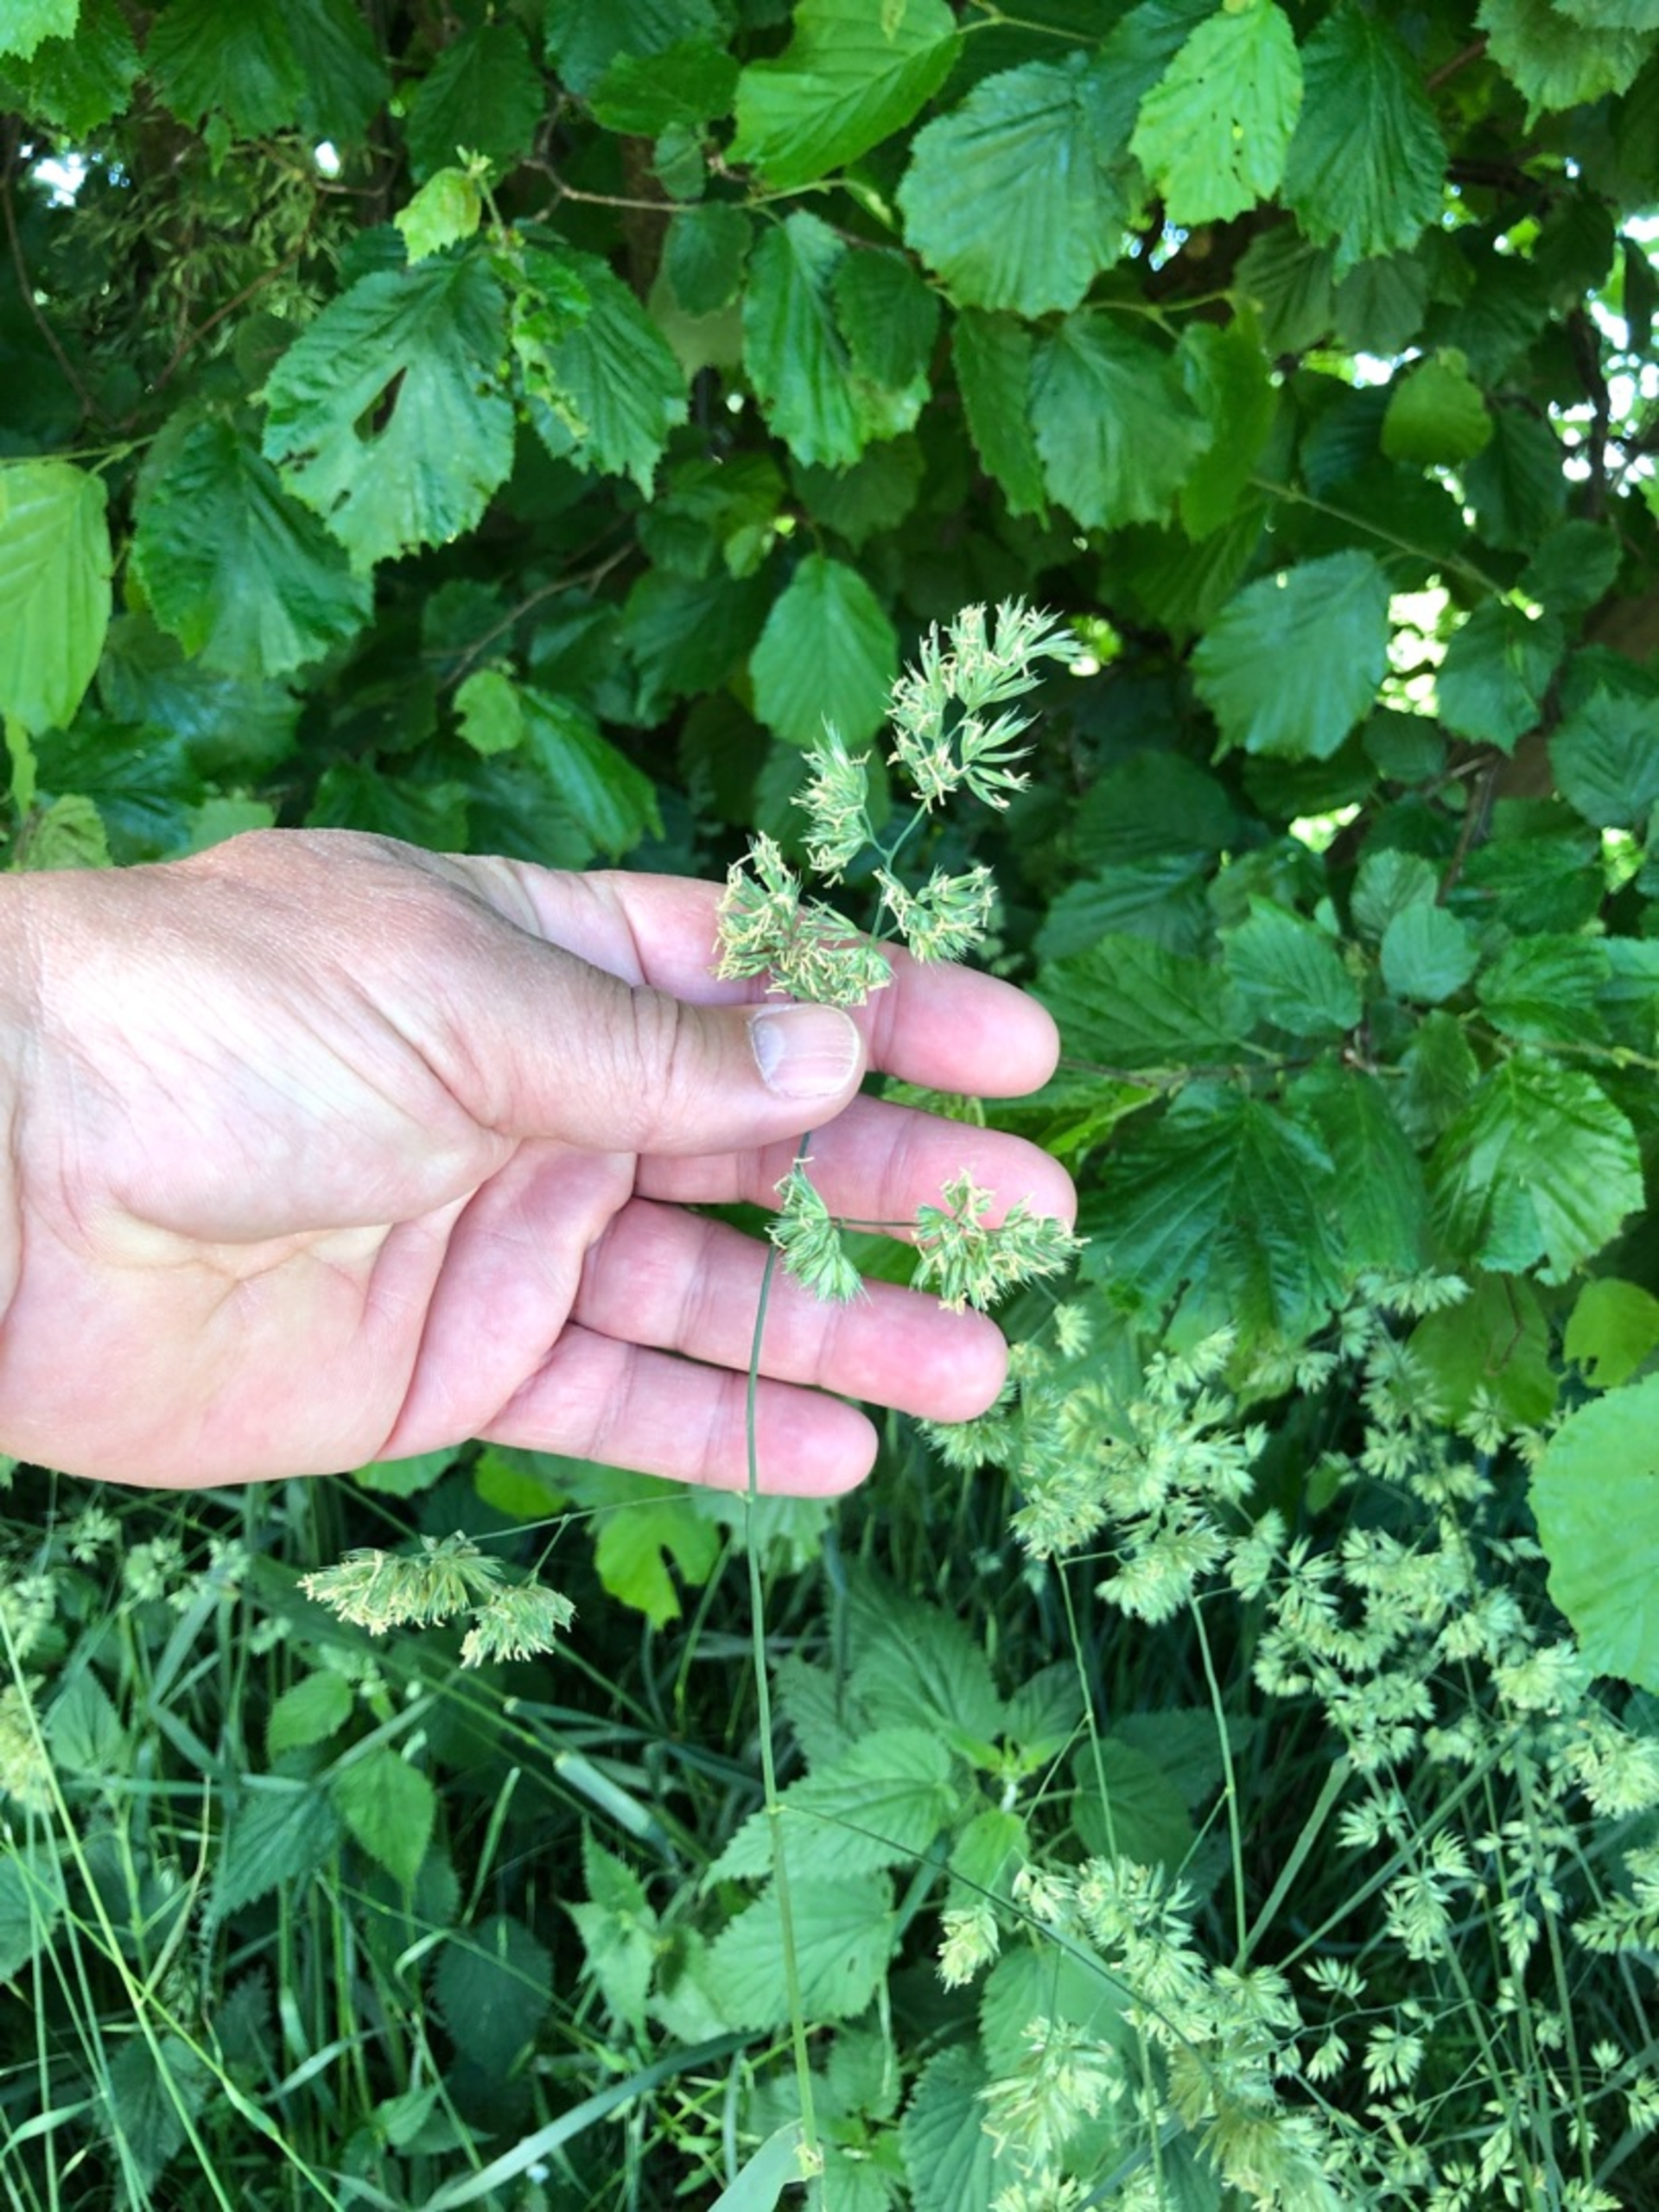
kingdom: Plantae
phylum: Tracheophyta
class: Liliopsida
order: Poales
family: Poaceae
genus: Dactylis
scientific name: Dactylis glomerata
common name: Almindelig hundegræs
